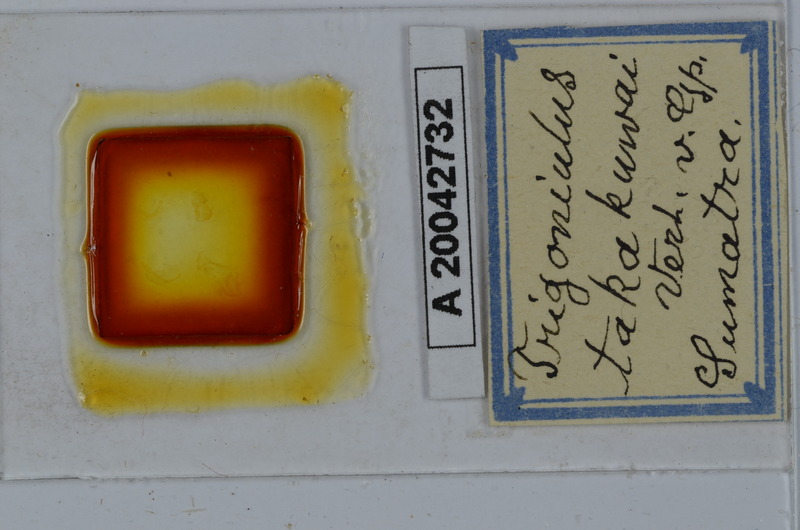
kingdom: Animalia
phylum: Arthropoda
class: Diplopoda
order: Spirobolida
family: Pachybolidae
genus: Trigoniulus
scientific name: Trigoniulus corallinus
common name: Millipede
